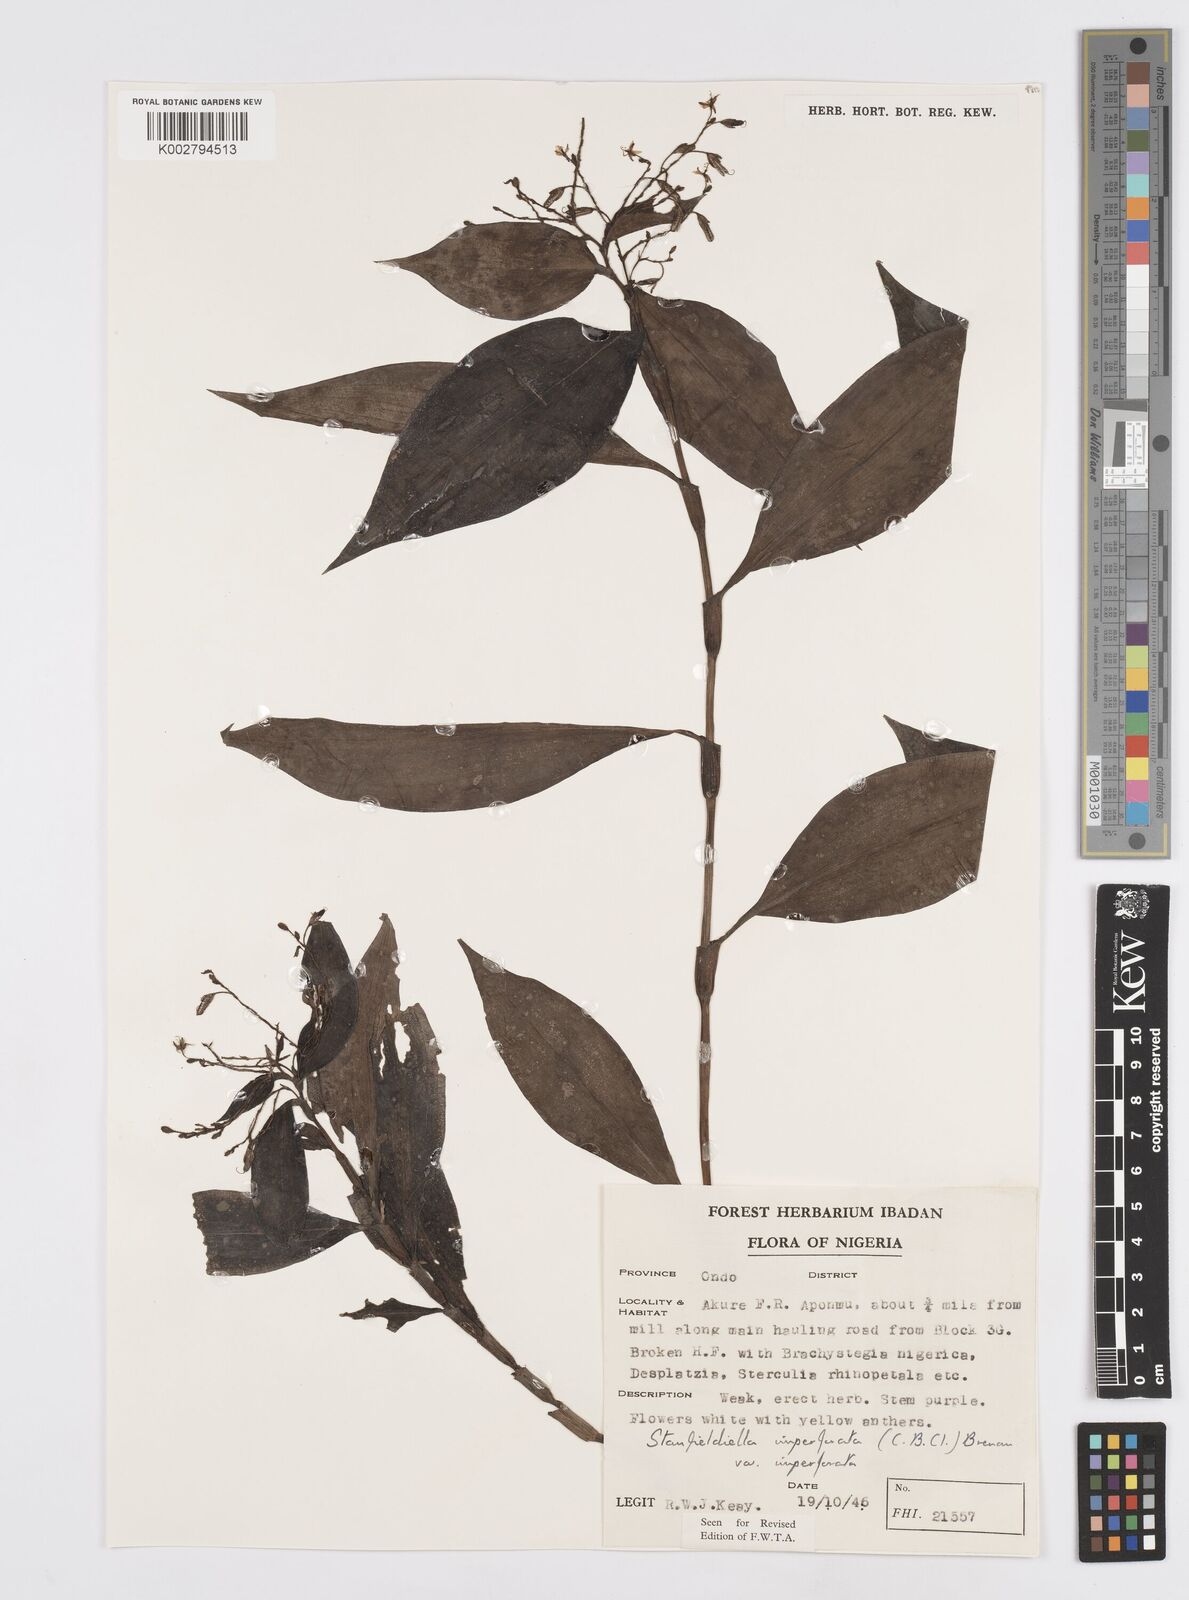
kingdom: Plantae
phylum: Tracheophyta
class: Liliopsida
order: Commelinales
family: Commelinaceae
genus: Stanfieldiella
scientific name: Stanfieldiella imperforata
